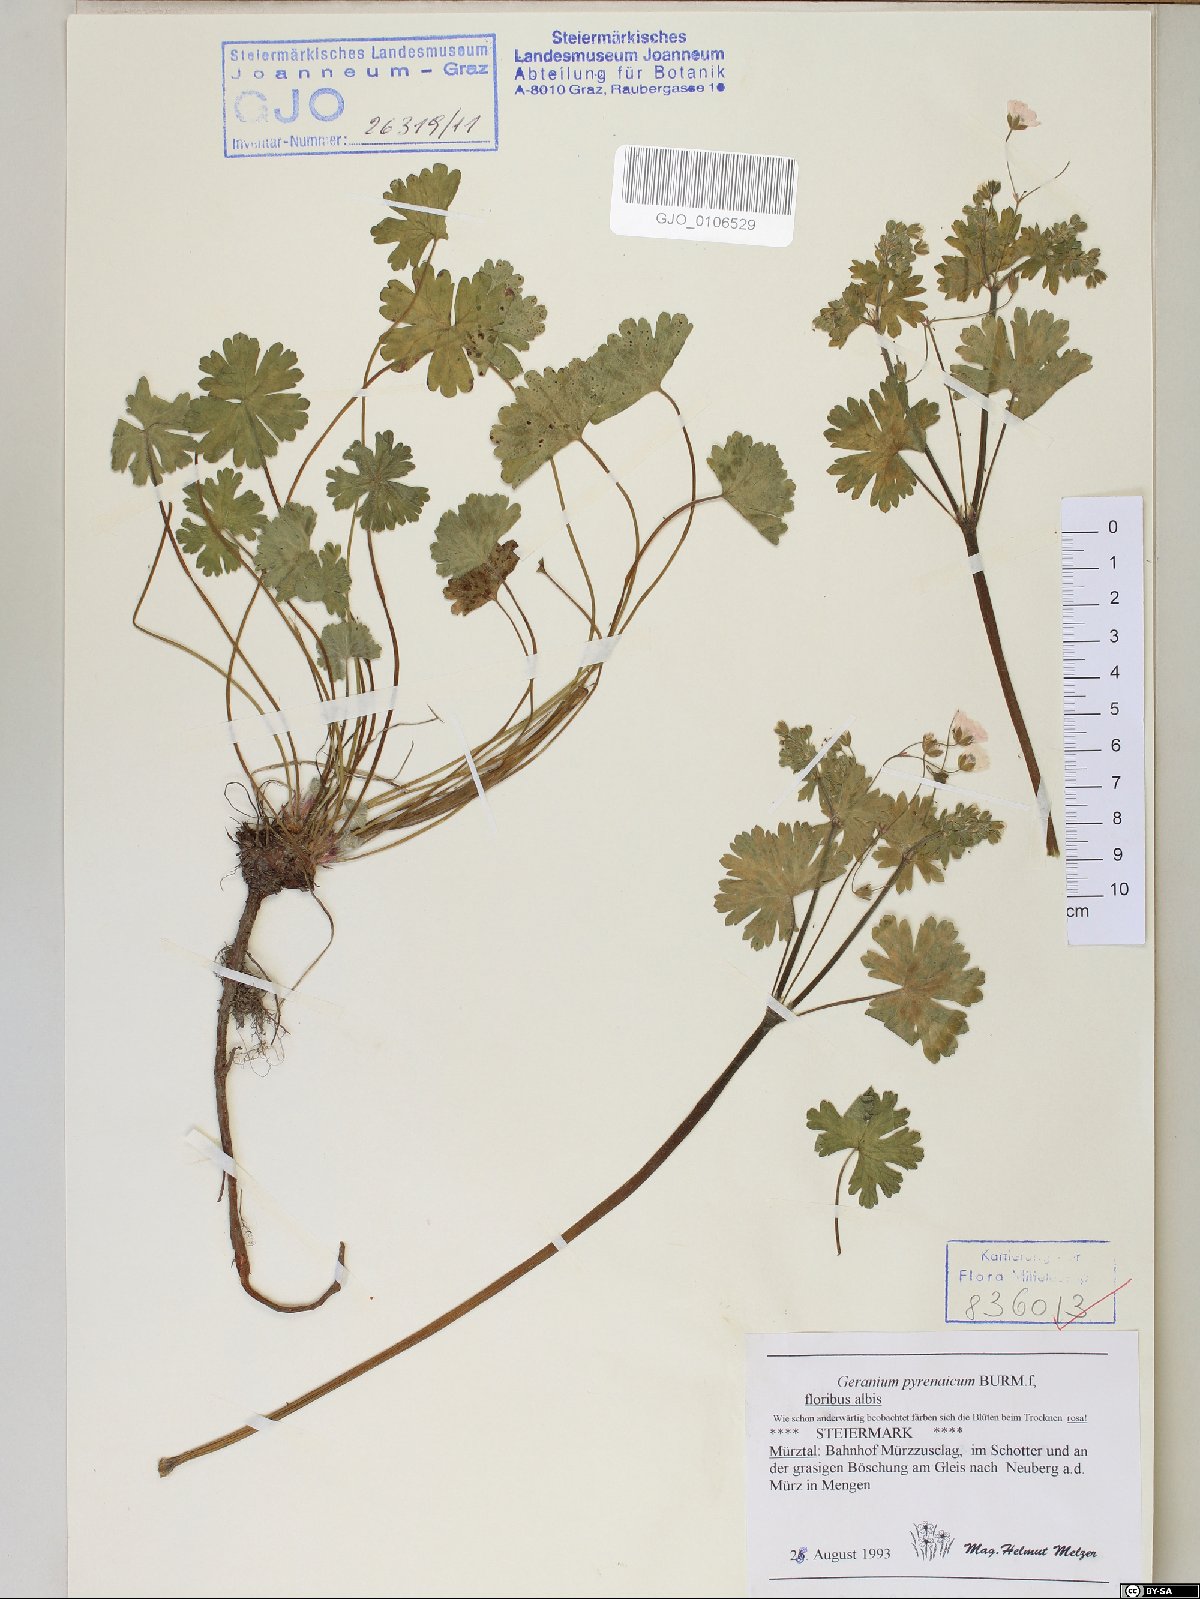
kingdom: Plantae
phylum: Tracheophyta
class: Magnoliopsida
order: Geraniales
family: Geraniaceae
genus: Geranium
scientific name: Geranium pyrenaicum
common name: Hedgerow crane's-bill
